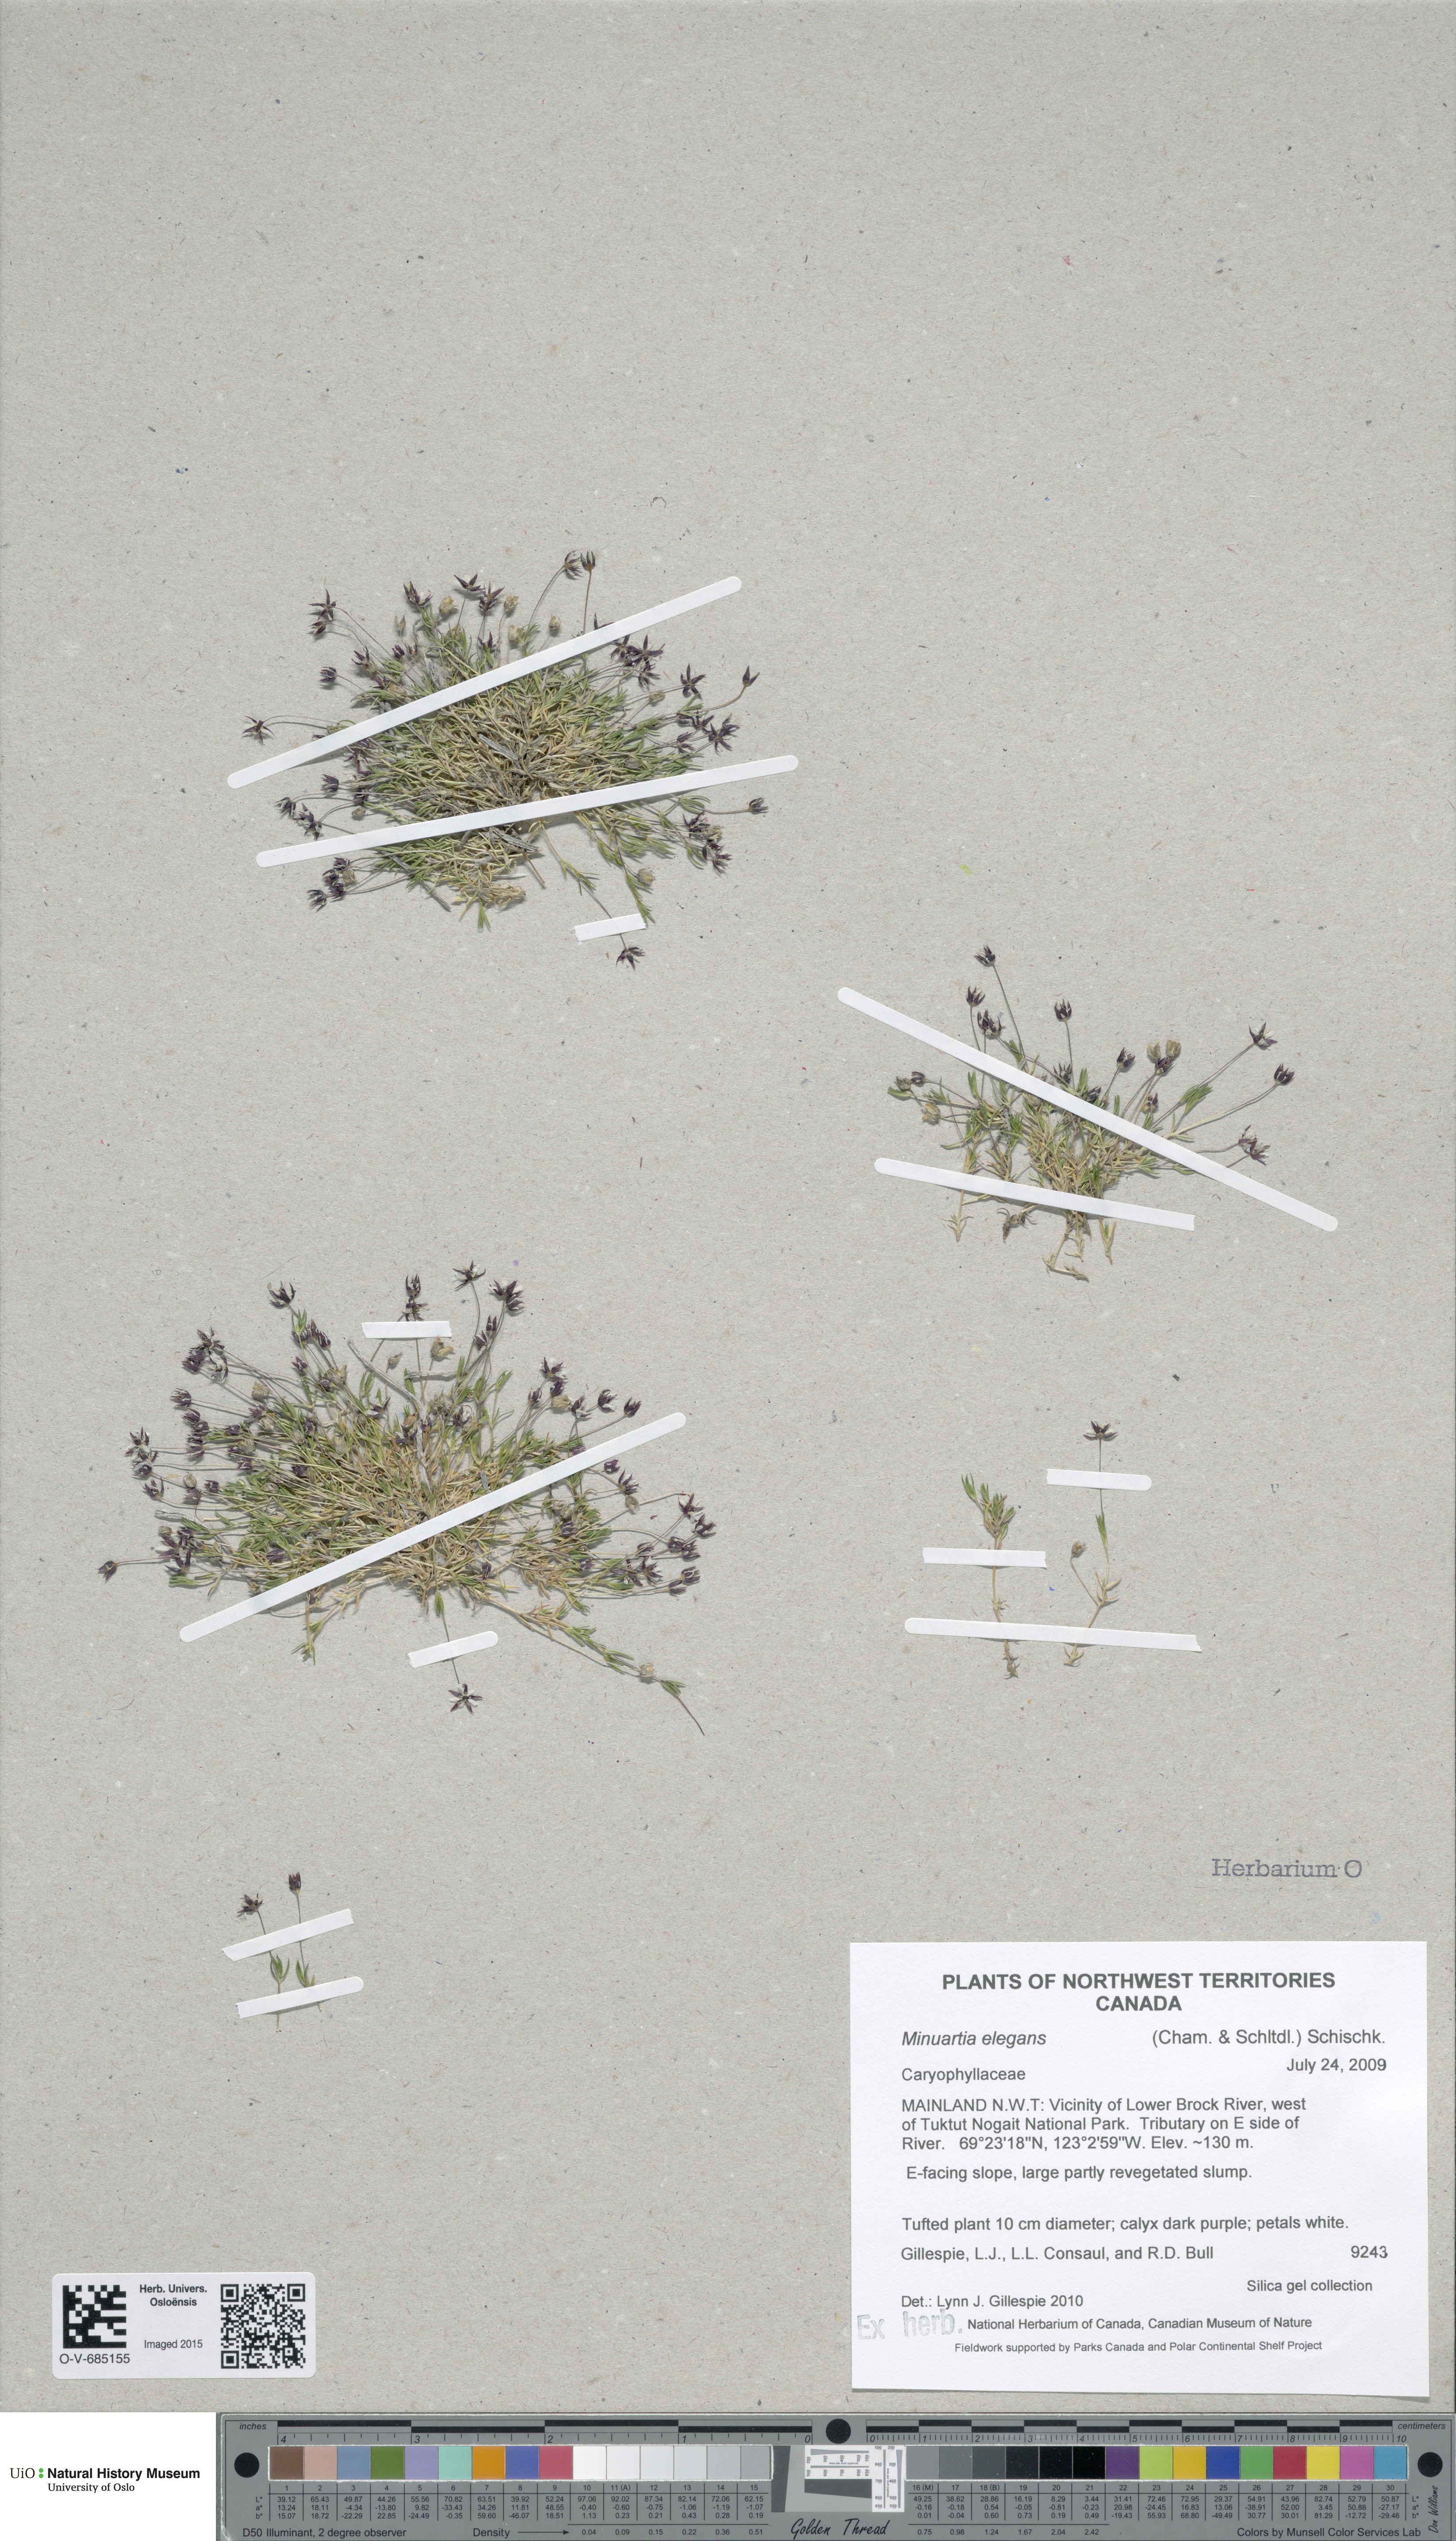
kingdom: Plantae
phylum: Tracheophyta
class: Magnoliopsida
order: Caryophyllales
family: Caryophyllaceae
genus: Sabulina
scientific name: Sabulina elegans
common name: Elegant stitchwort
